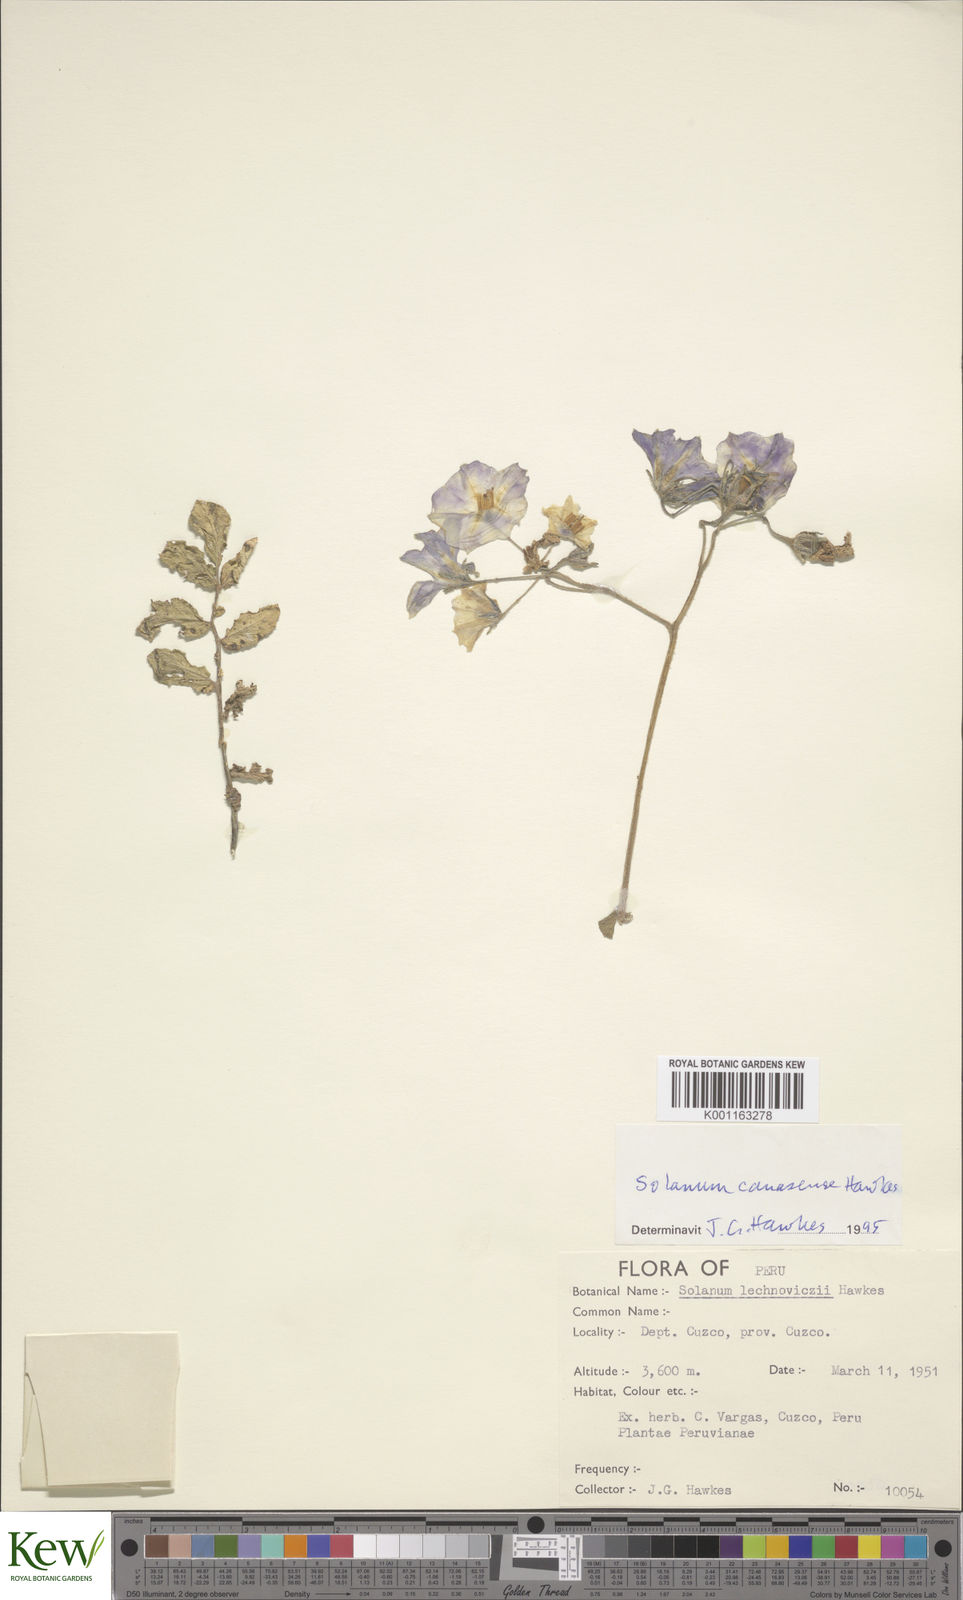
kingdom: Plantae
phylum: Tracheophyta
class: Magnoliopsida
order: Solanales
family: Solanaceae
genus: Solanum
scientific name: Solanum candolleanum
